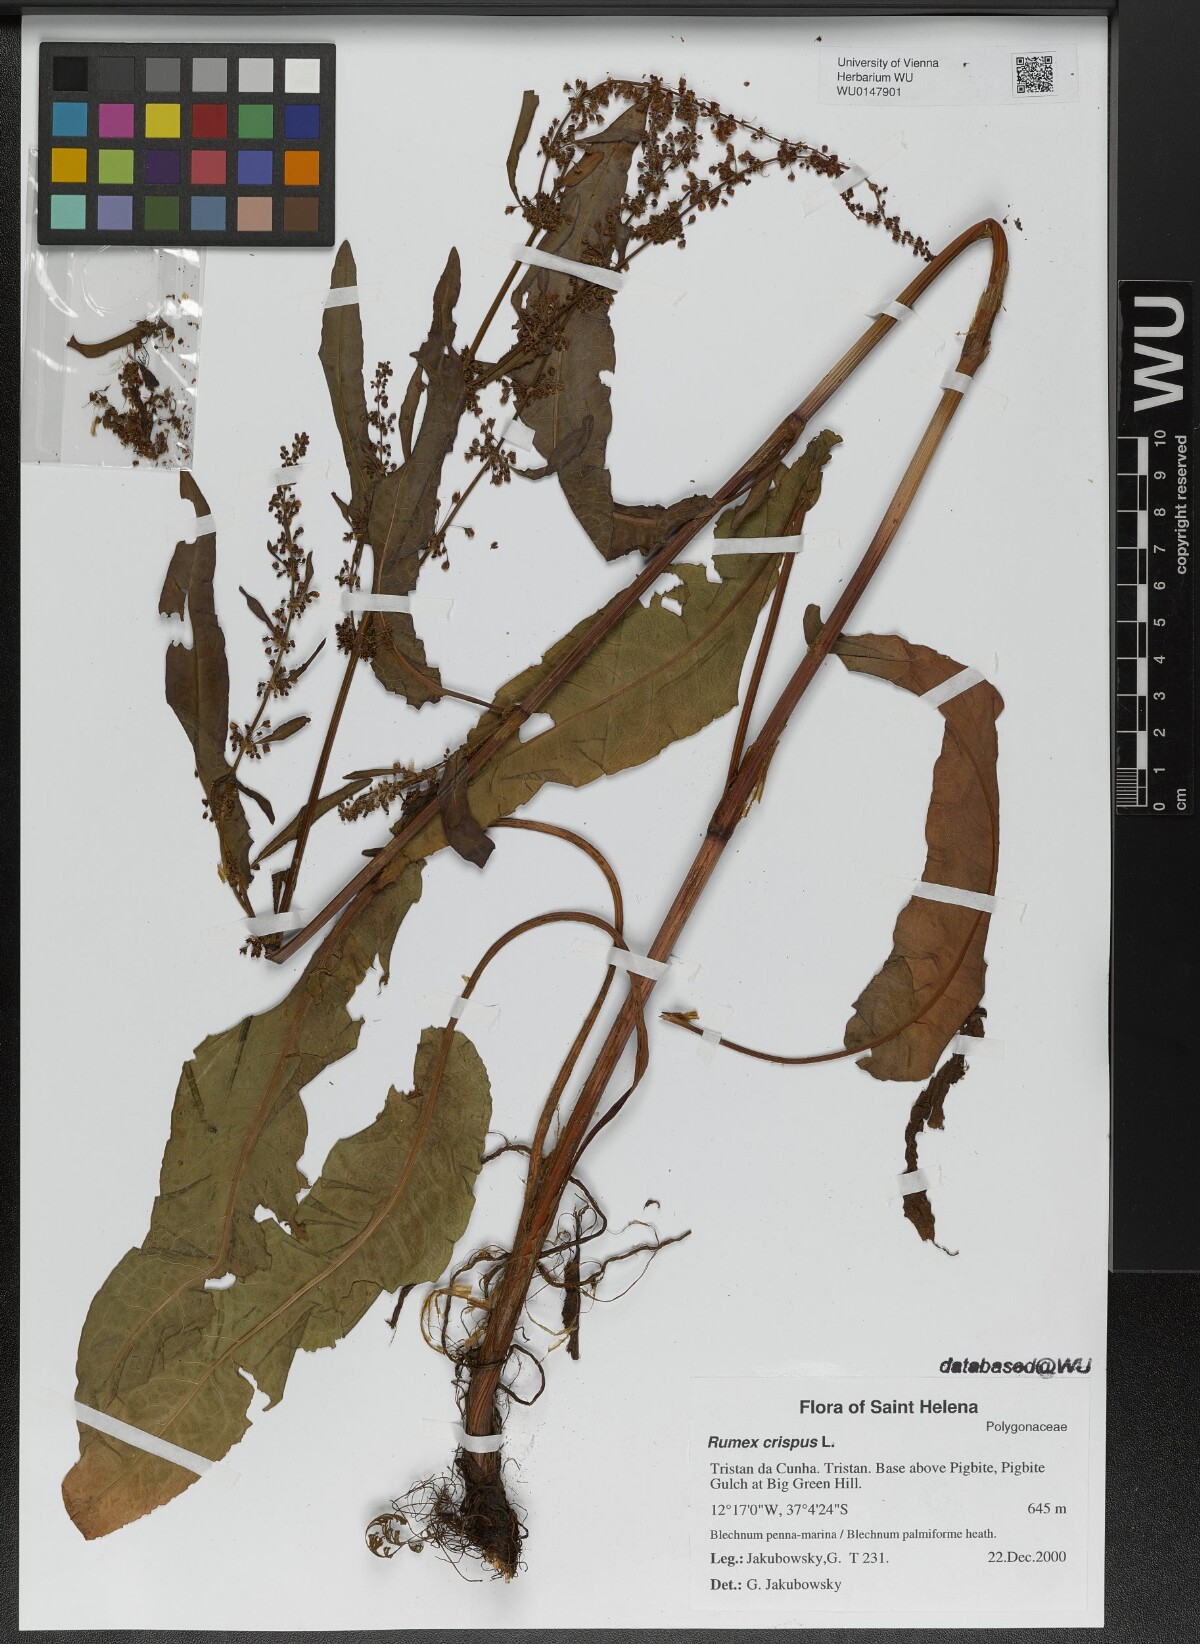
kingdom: Plantae
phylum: Tracheophyta
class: Magnoliopsida
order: Caryophyllales
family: Polygonaceae
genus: Rumex
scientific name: Rumex crispus
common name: Curled dock
